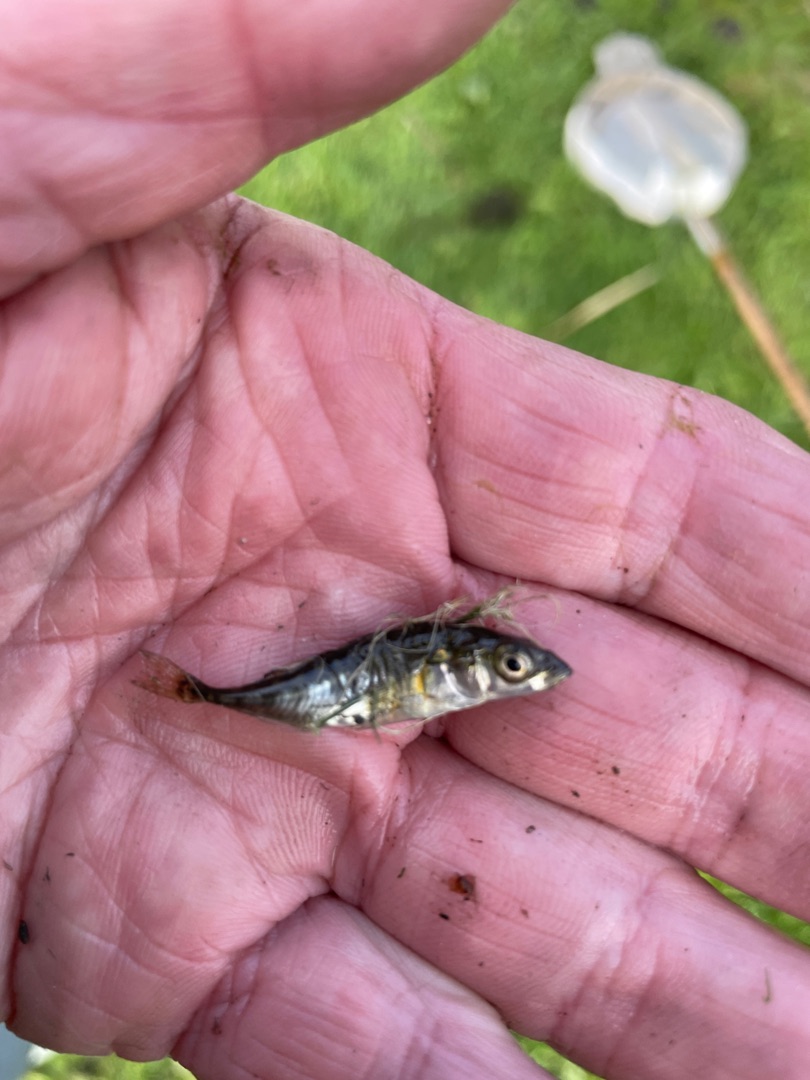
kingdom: Animalia
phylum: Chordata
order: Gasterosteiformes
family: Gasterosteidae
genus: Gasterosteus
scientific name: Gasterosteus aculeatus
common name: Trepigget hundestejle
